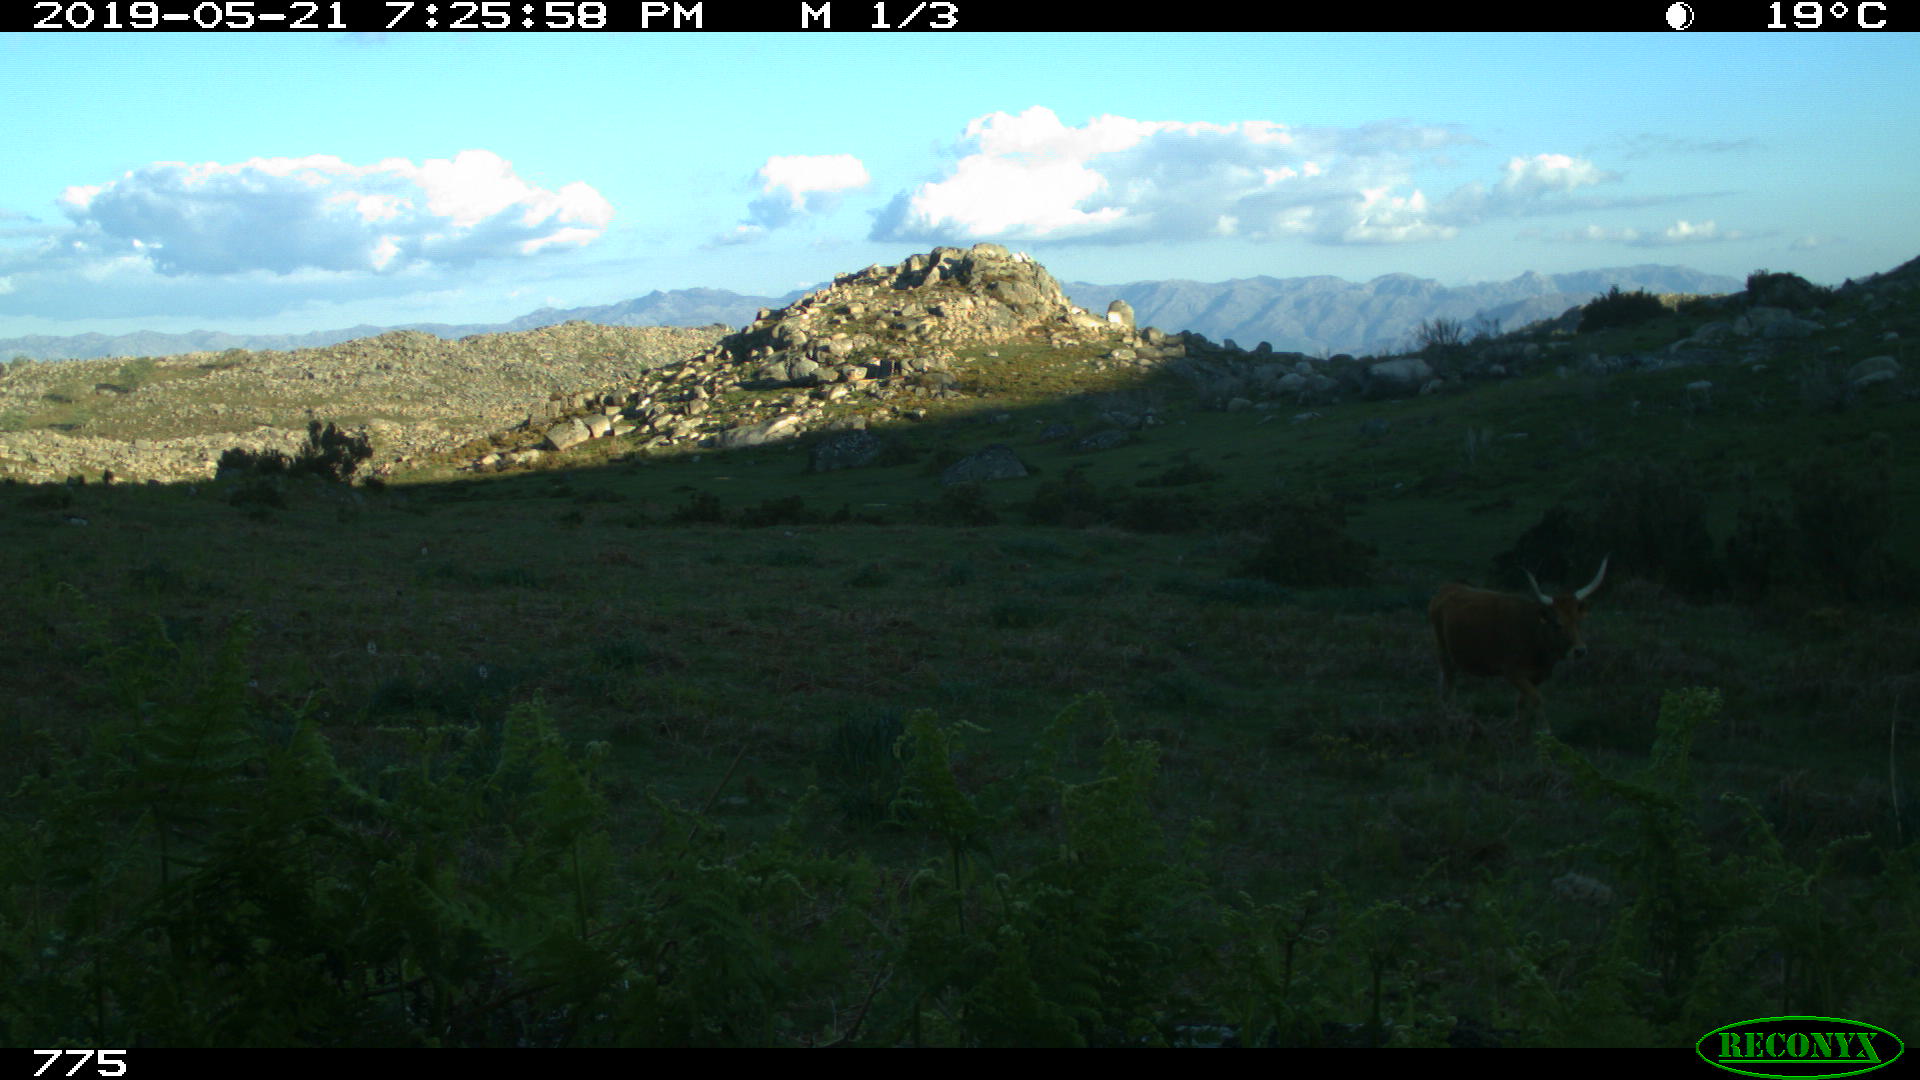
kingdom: Animalia
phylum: Chordata
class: Mammalia
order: Artiodactyla
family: Bovidae
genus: Bos
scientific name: Bos taurus
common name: Domesticated cattle
